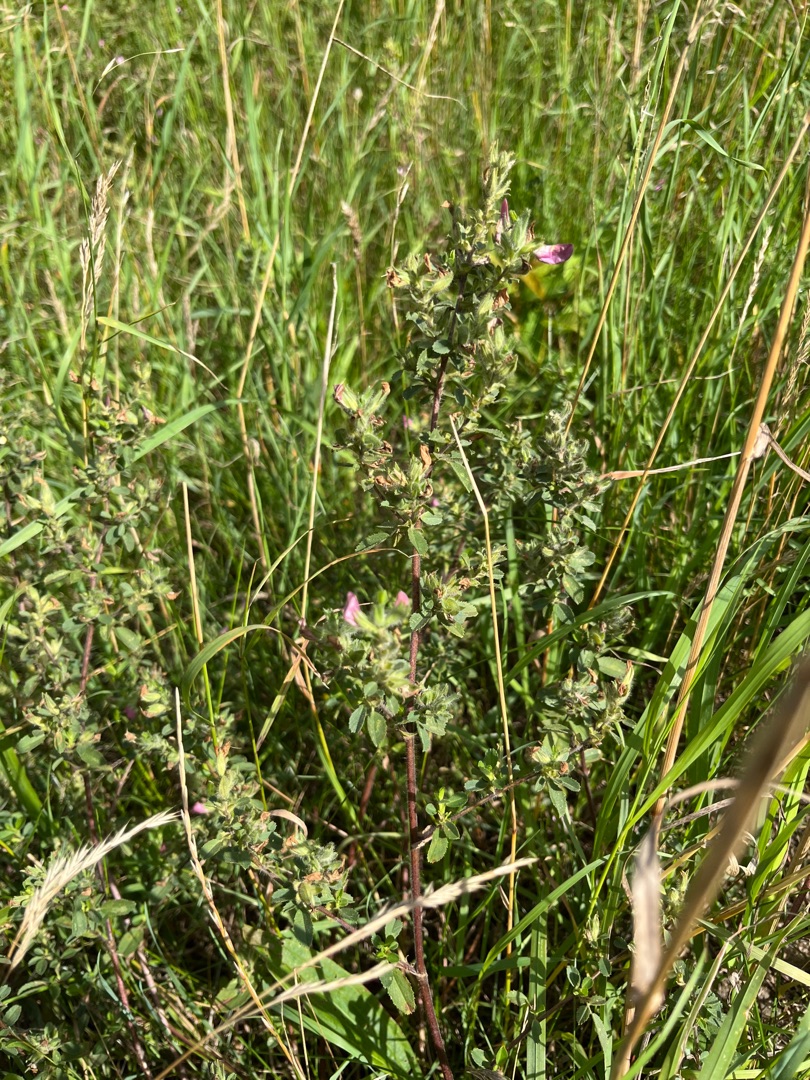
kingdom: Plantae
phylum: Tracheophyta
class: Magnoliopsida
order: Fabales
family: Fabaceae
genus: Ononis
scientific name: Ononis spinosa
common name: Mark-krageklo
